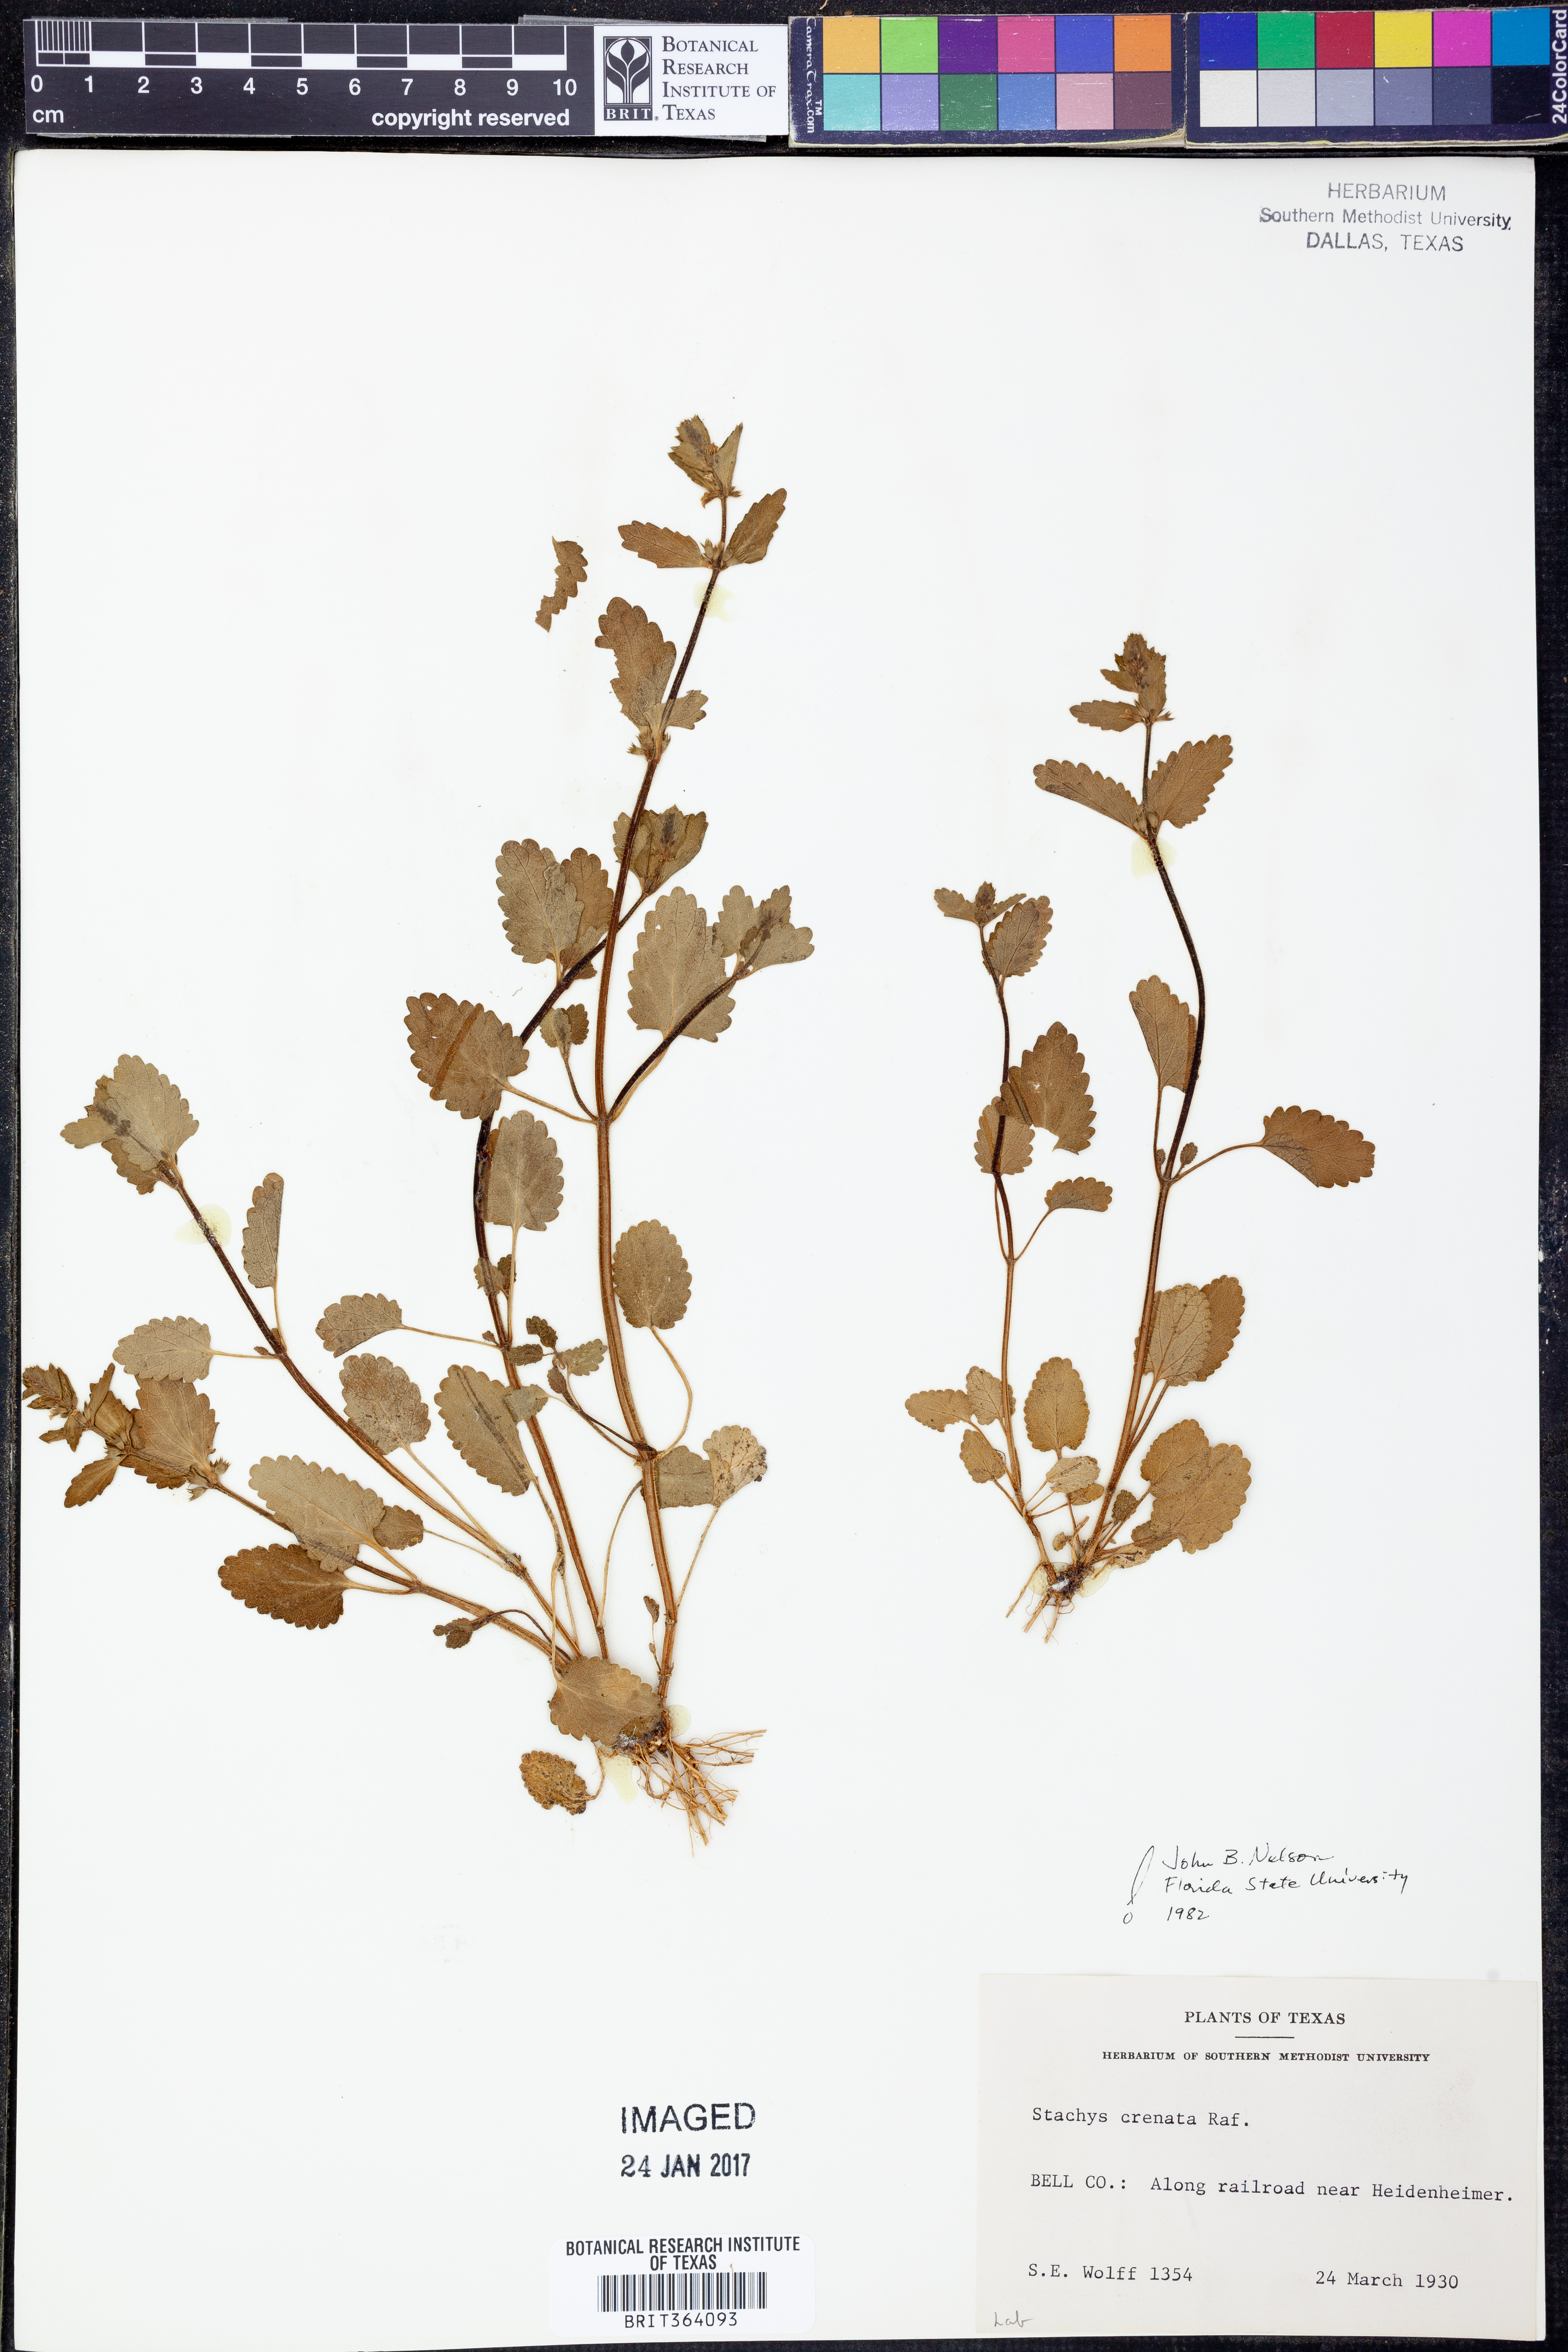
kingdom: Plantae
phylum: Tracheophyta
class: Magnoliopsida
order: Lamiales
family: Lamiaceae
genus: Stachys
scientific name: Stachys agraria
